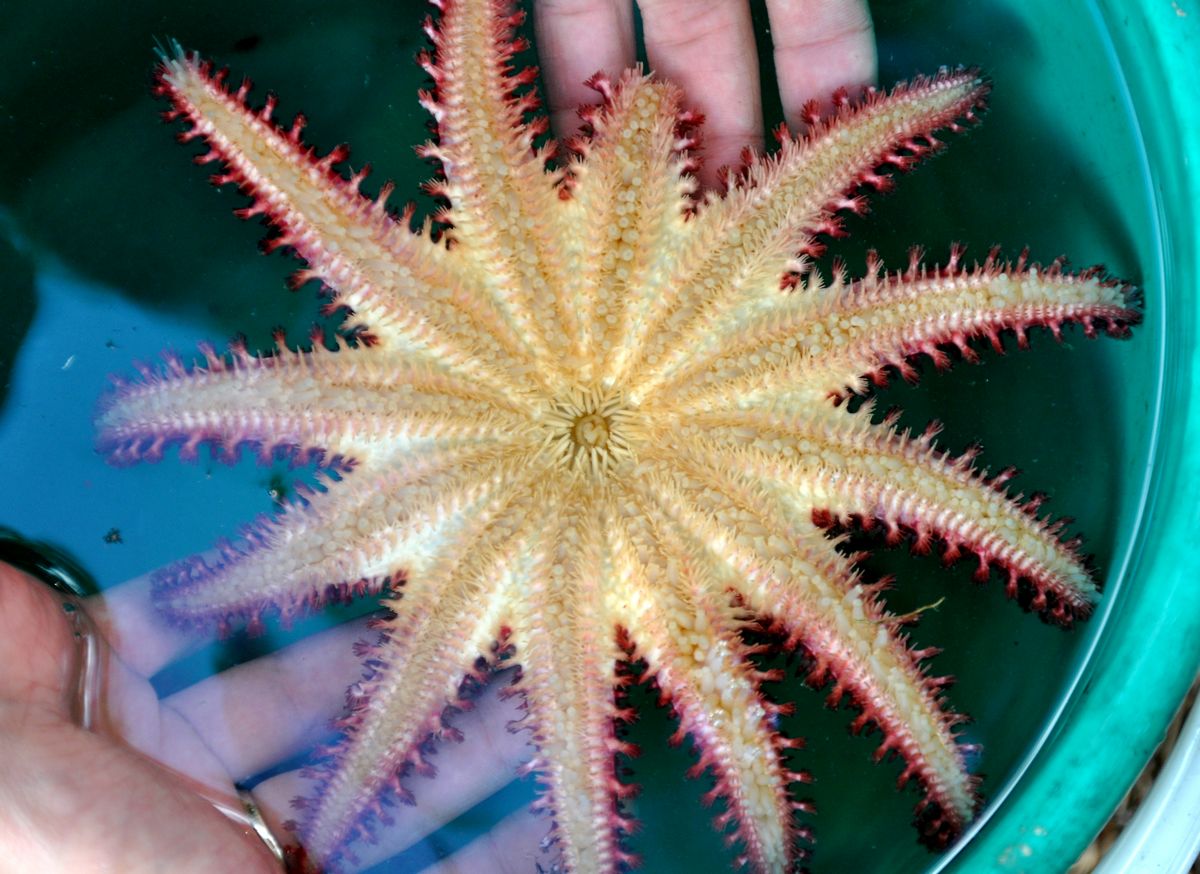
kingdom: Animalia
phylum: Echinodermata
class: Asteroidea
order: Valvatida
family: Solasteridae
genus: Crossaster
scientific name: Crossaster papposus
